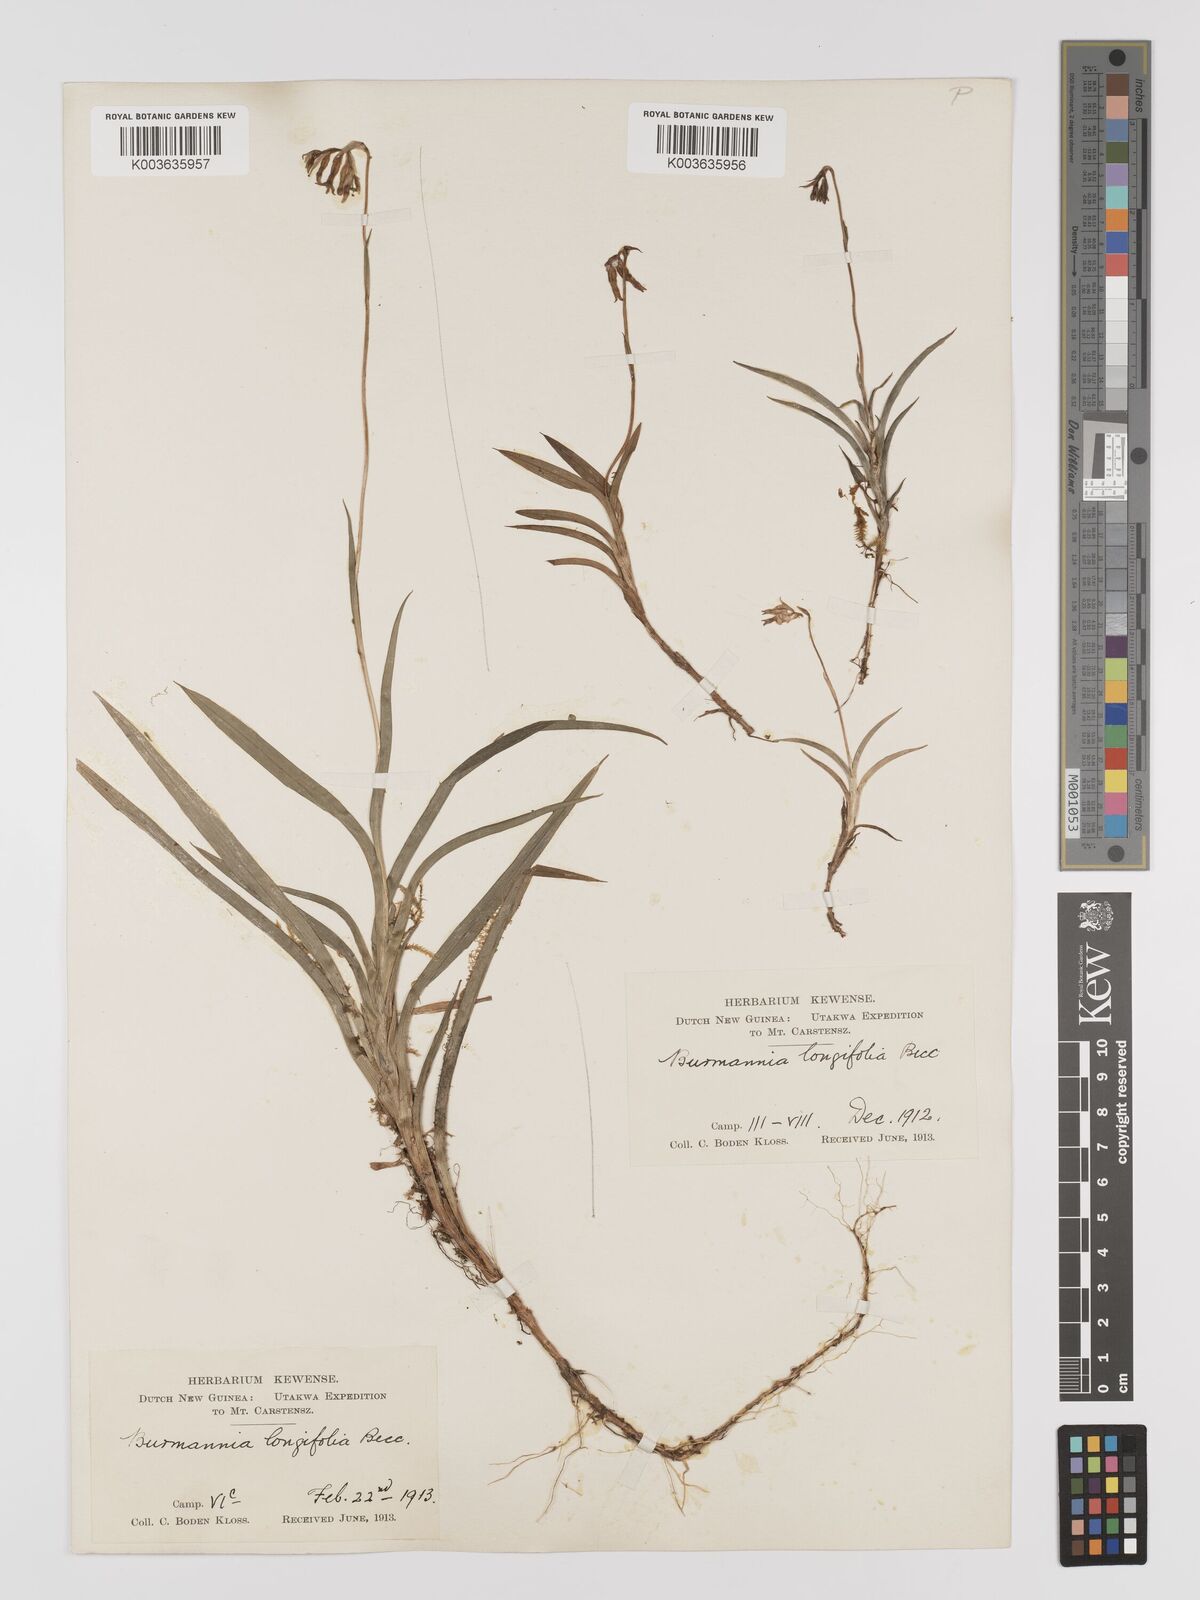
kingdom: Plantae
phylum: Tracheophyta
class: Liliopsida
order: Dioscoreales
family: Burmanniaceae
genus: Burmannia
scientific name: Burmannia longifolia
